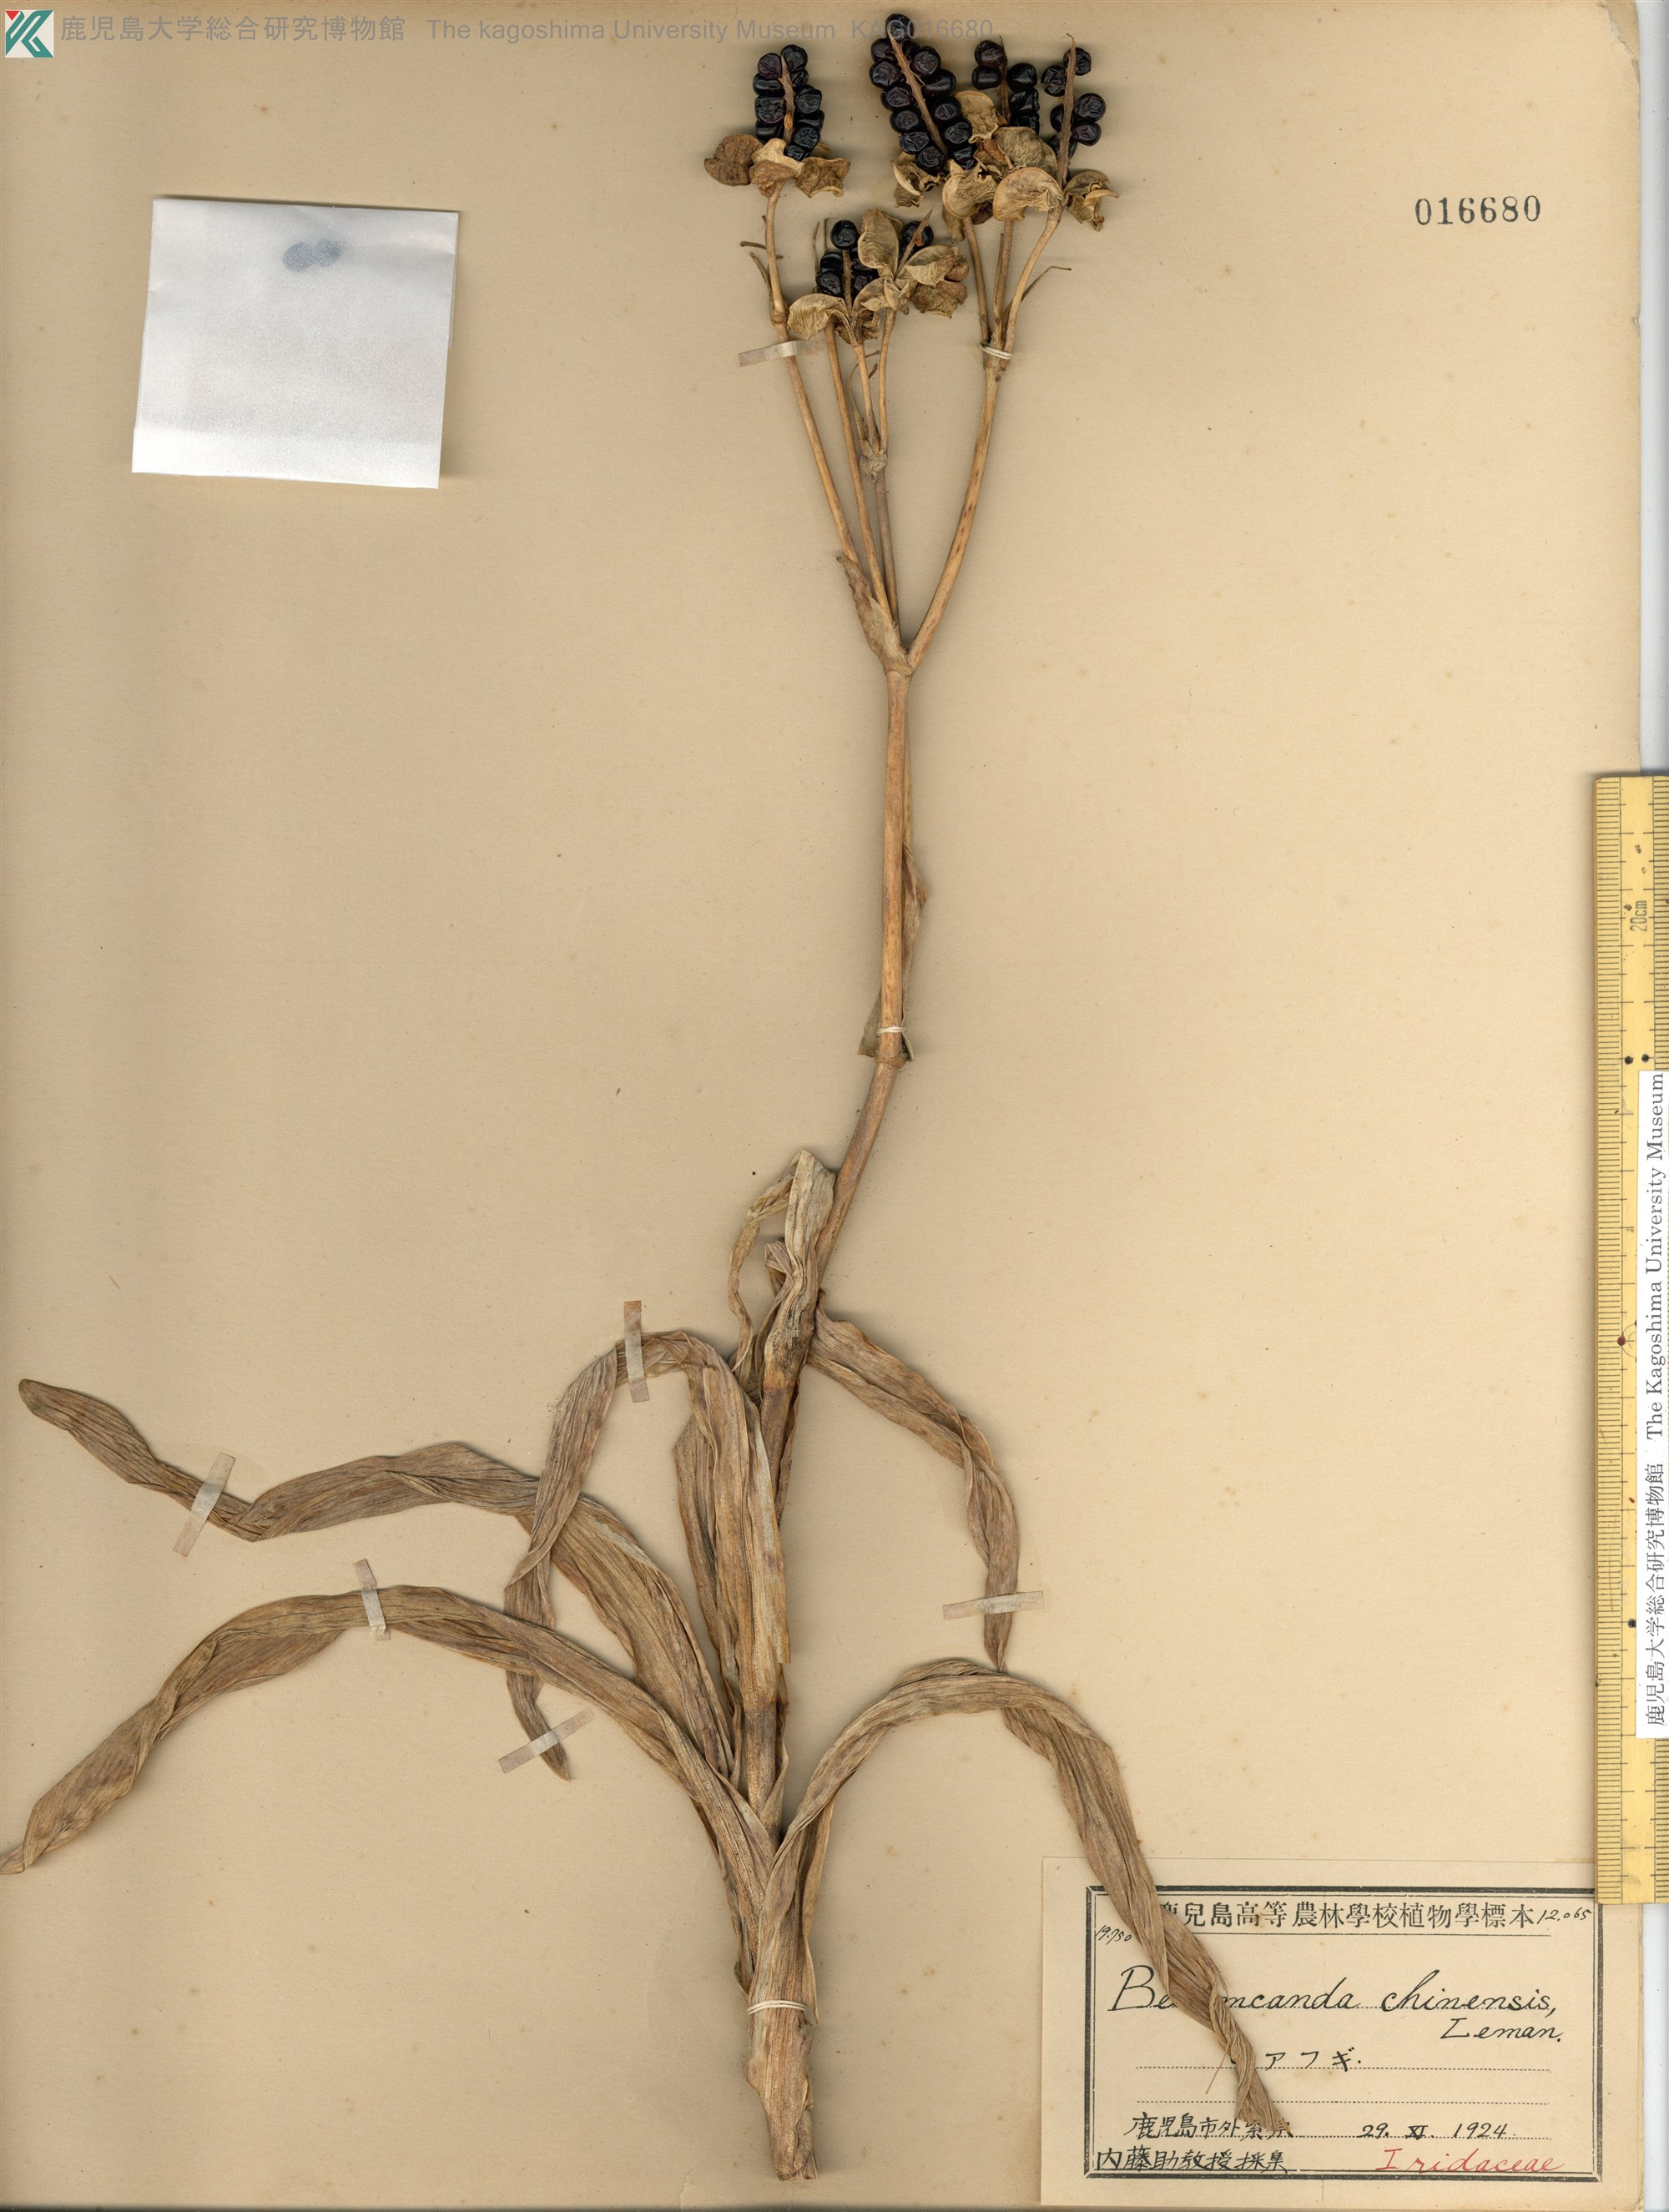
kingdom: Plantae
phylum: Tracheophyta
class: Liliopsida
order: Asparagales
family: Iridaceae
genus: Iris
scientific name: Iris domestica
